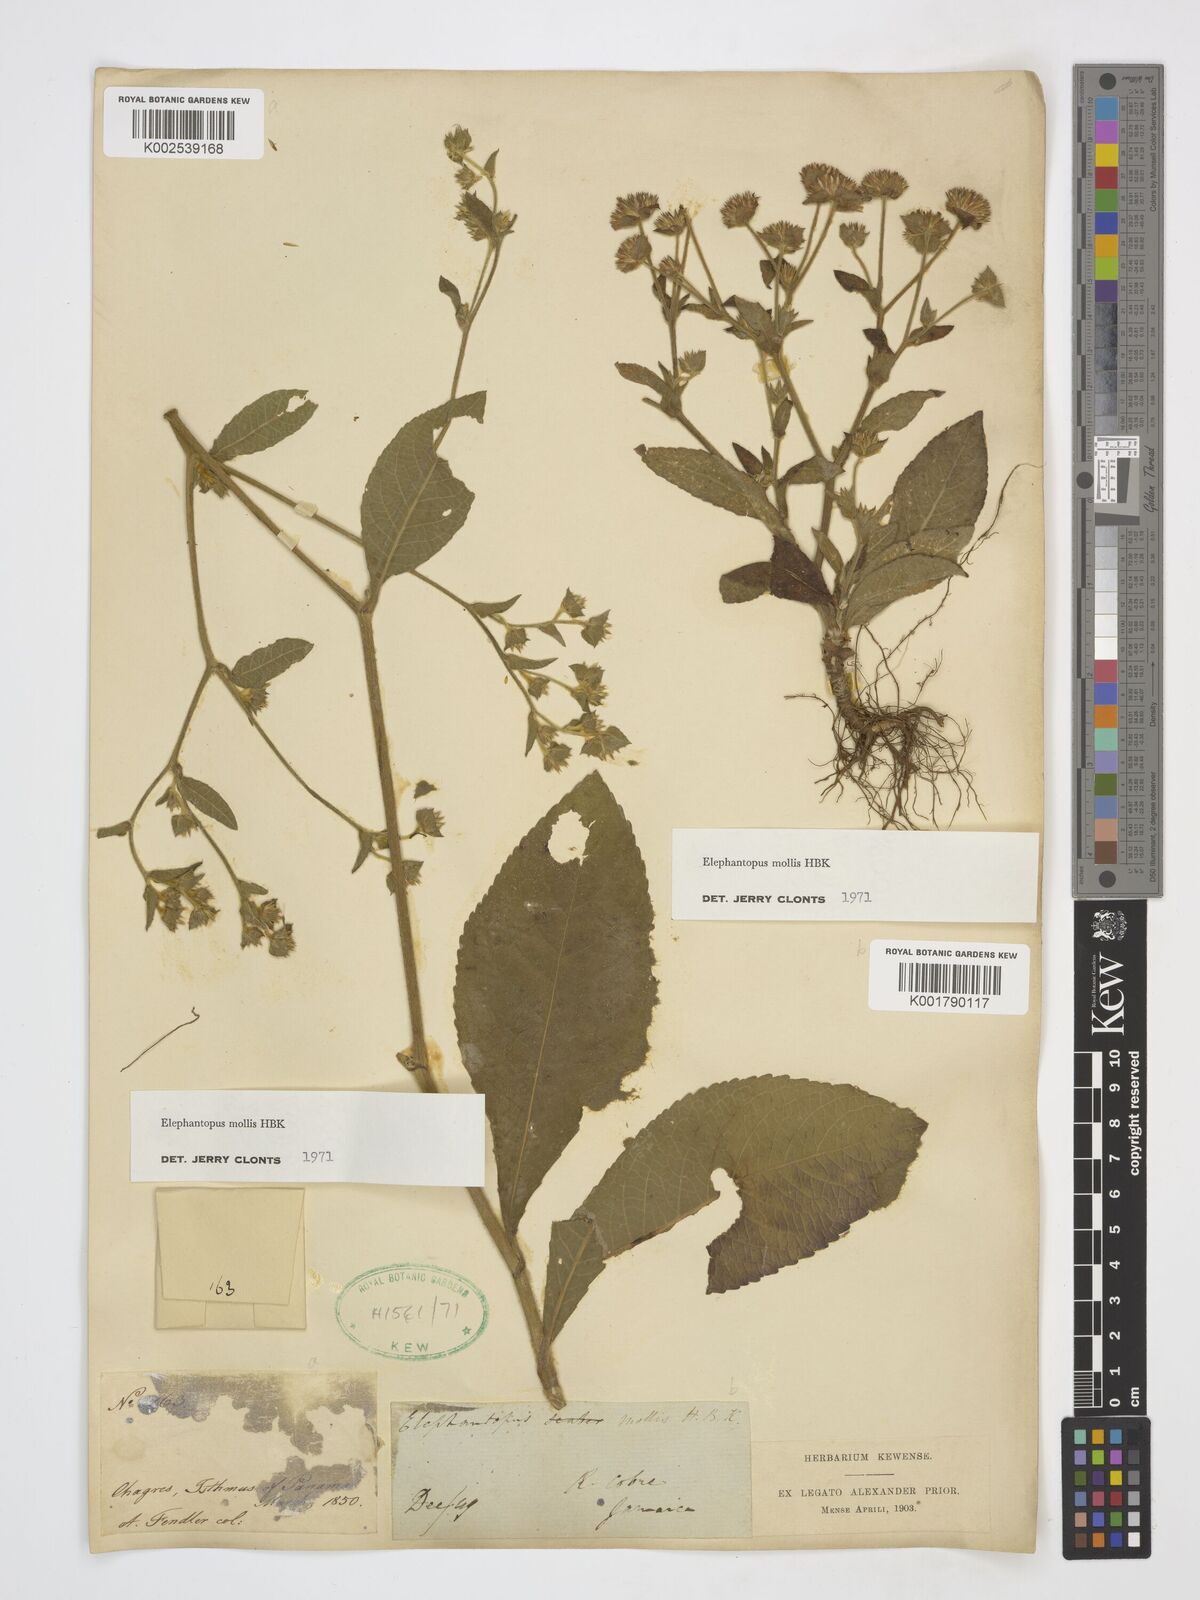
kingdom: Plantae
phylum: Tracheophyta
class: Magnoliopsida
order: Asterales
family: Asteraceae
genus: Elephantopus
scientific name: Elephantopus mollis
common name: Soft elephantsfoot
